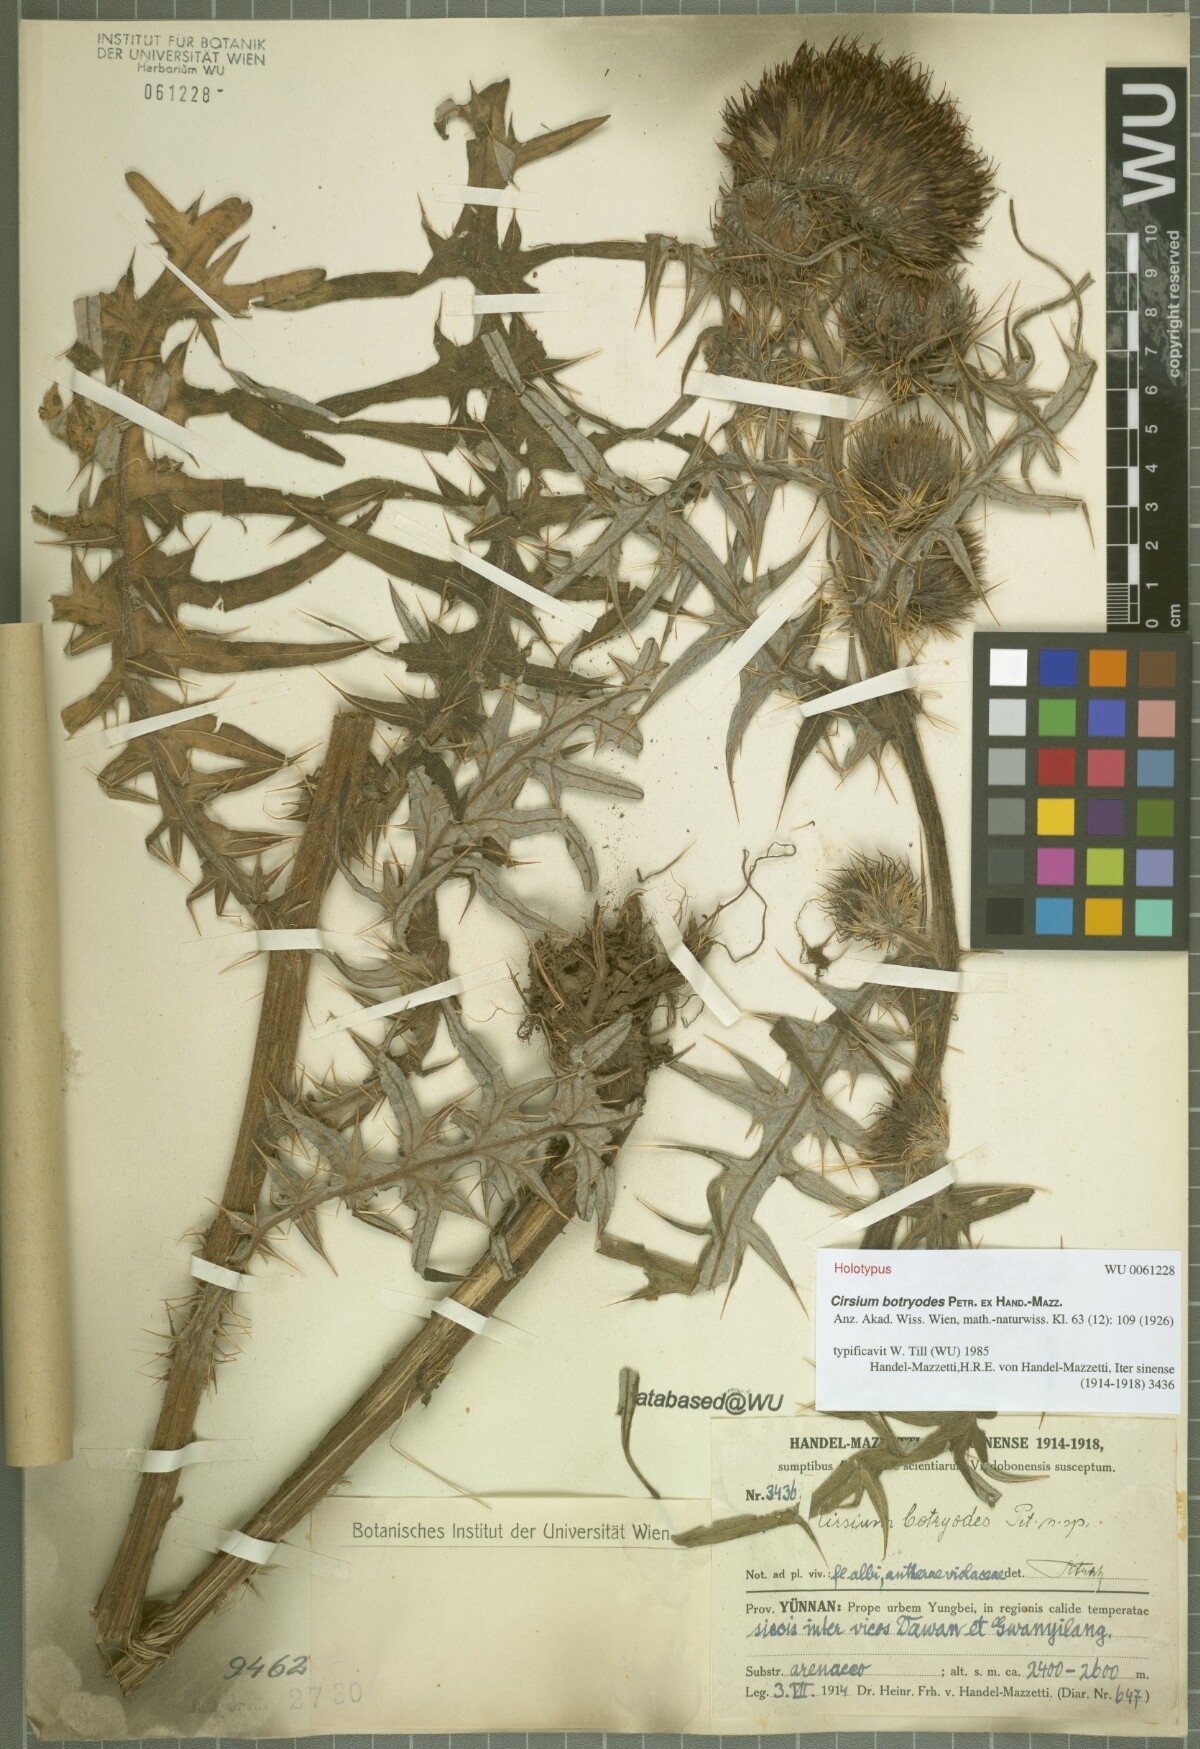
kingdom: Plantae
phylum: Tracheophyta
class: Magnoliopsida
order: Asterales
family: Asteraceae
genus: Cirsium
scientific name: Cirsium botryodes
